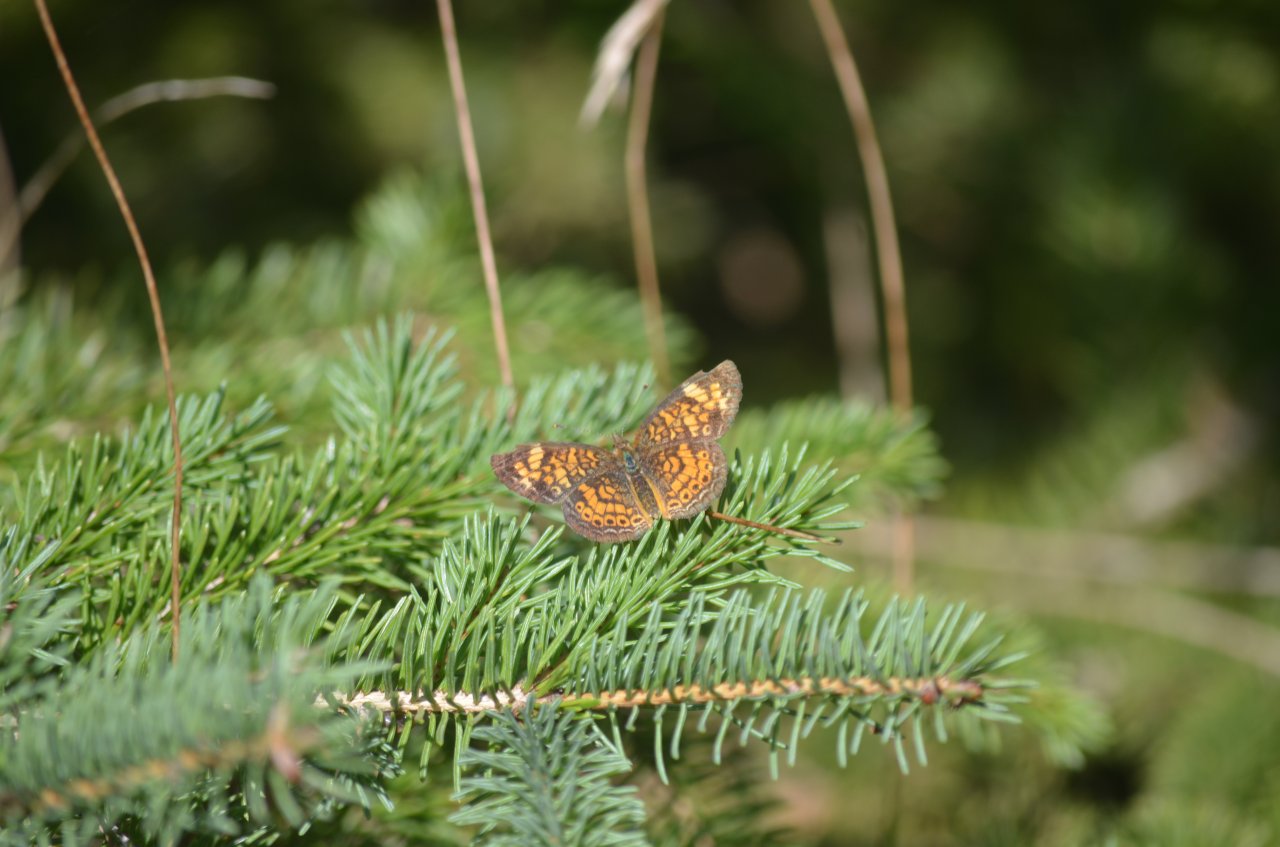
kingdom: Animalia
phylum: Arthropoda
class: Insecta
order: Lepidoptera
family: Nymphalidae
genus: Phyciodes
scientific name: Phyciodes tharos
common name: Pearl Crescent
